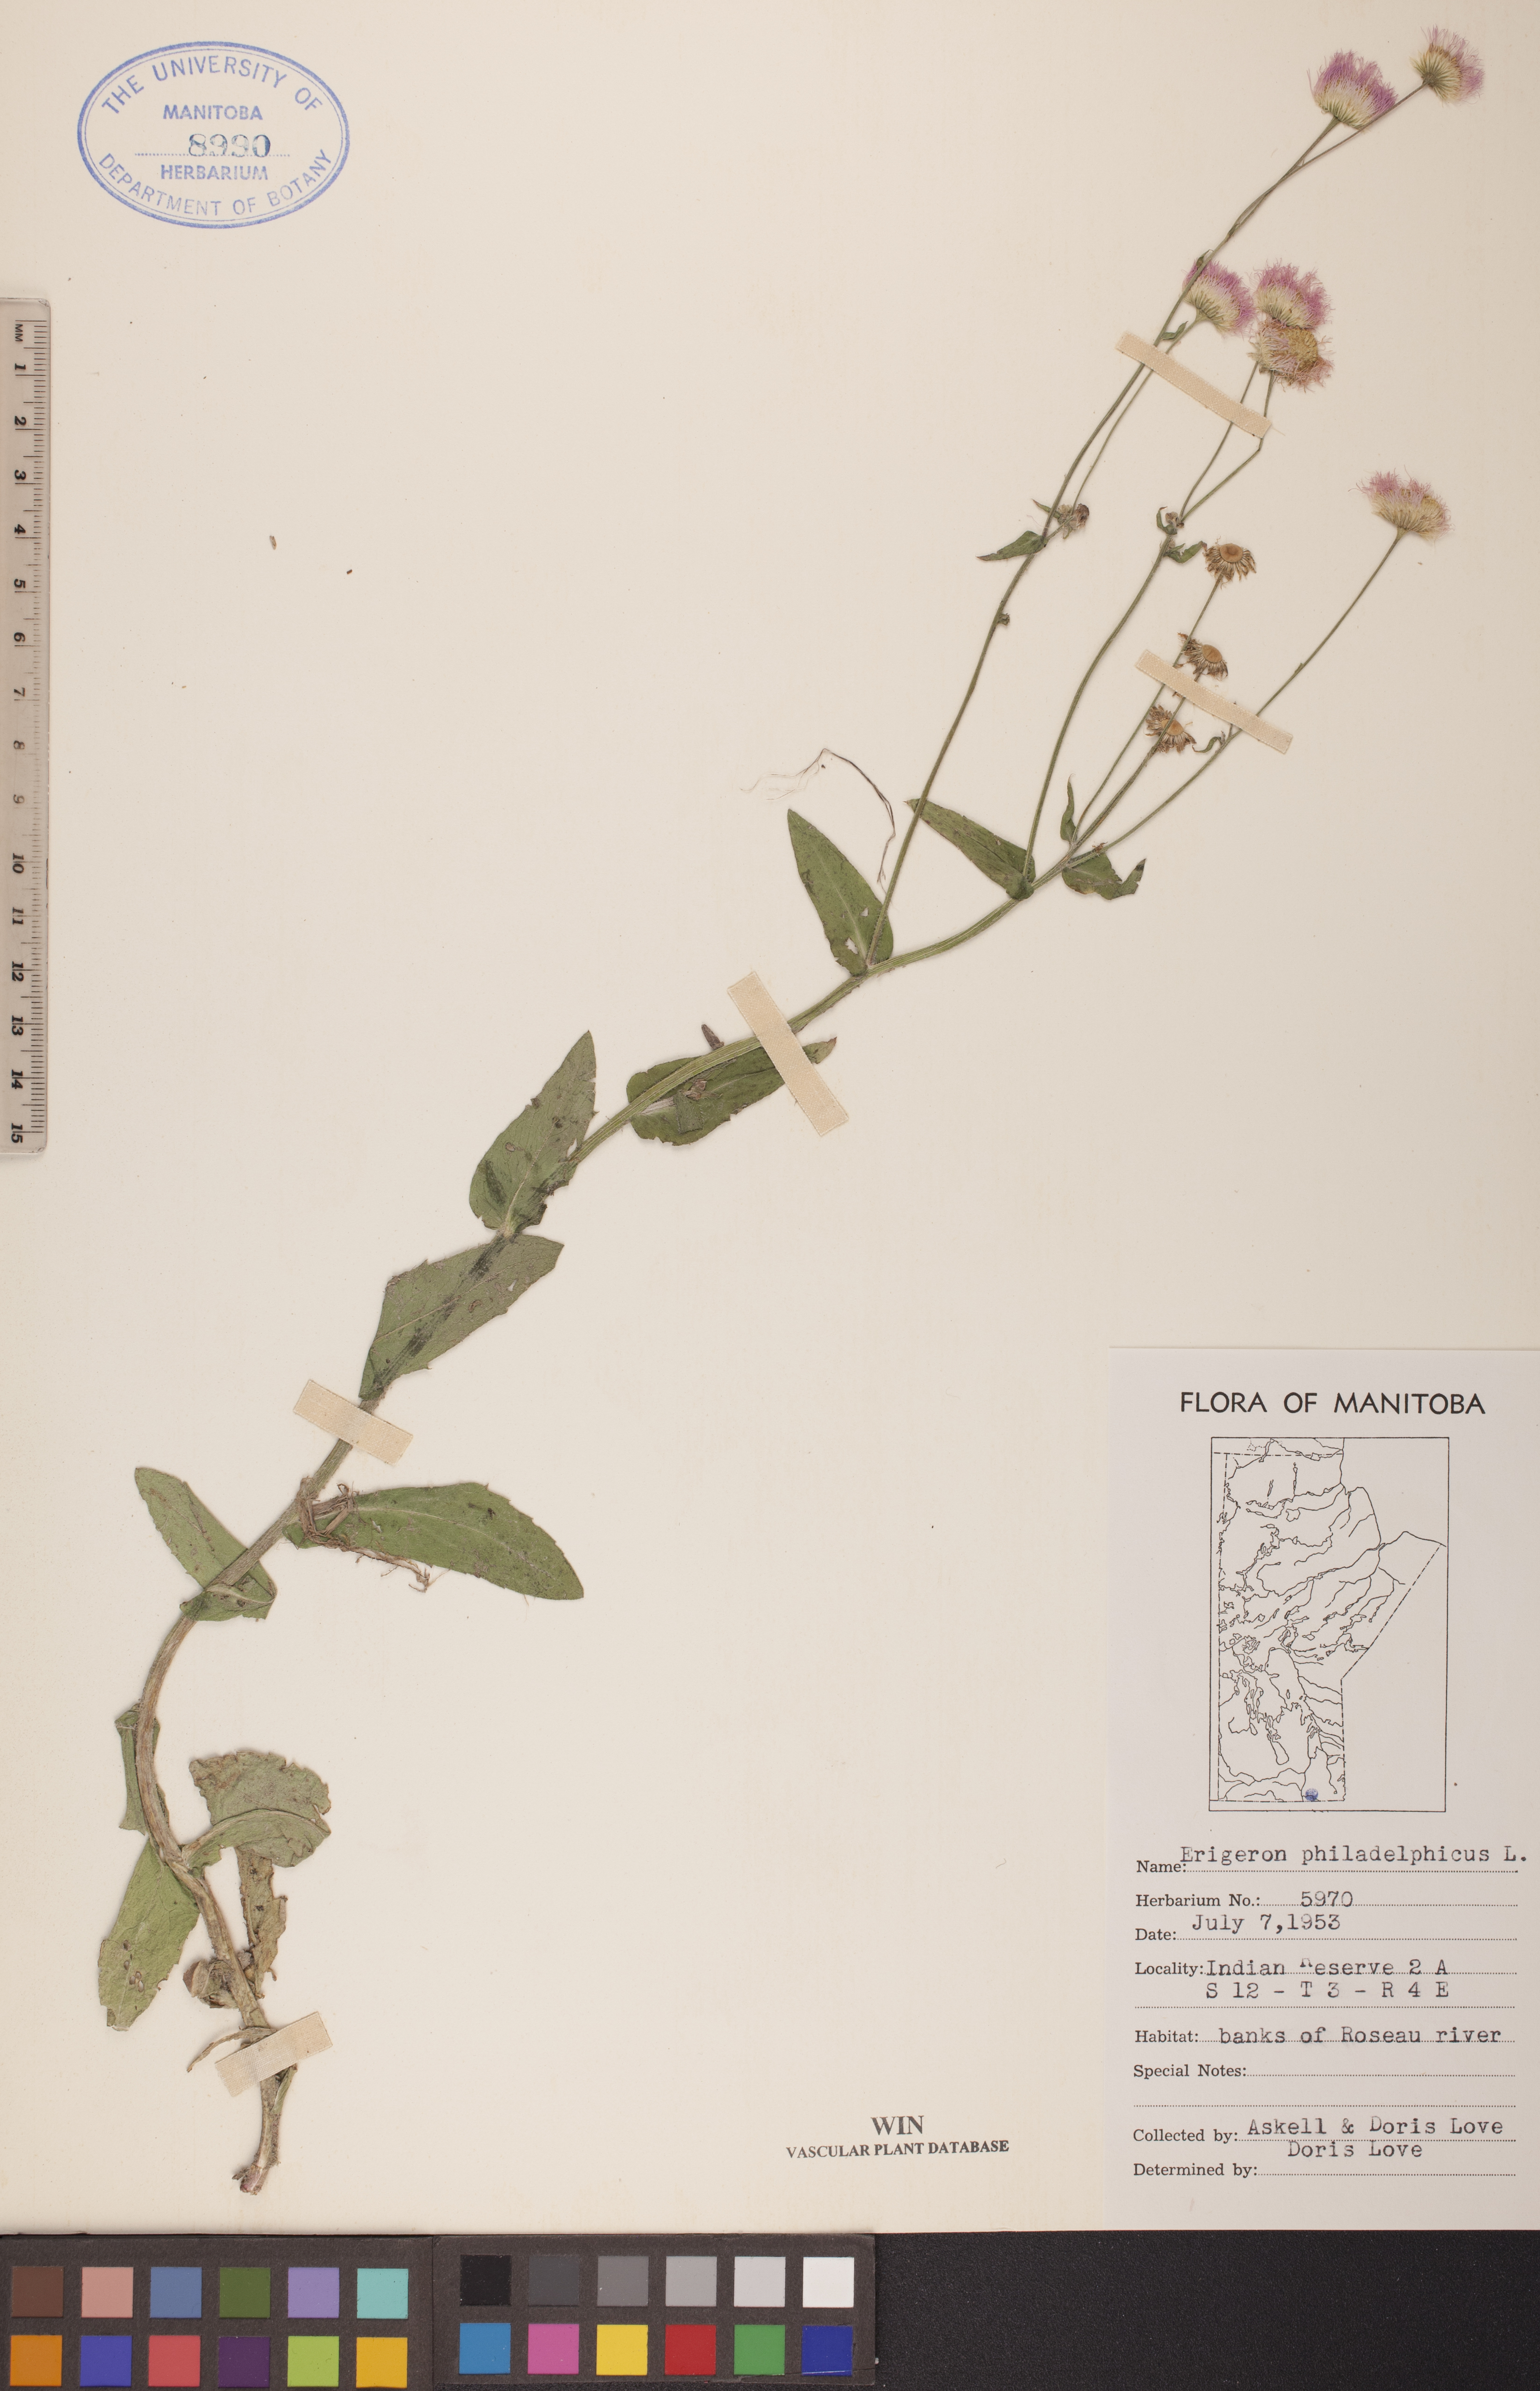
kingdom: Plantae
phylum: Tracheophyta
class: Magnoliopsida
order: Asterales
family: Asteraceae
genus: Erigeron
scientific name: Erigeron philadelphicus
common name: Robin's-plantain
